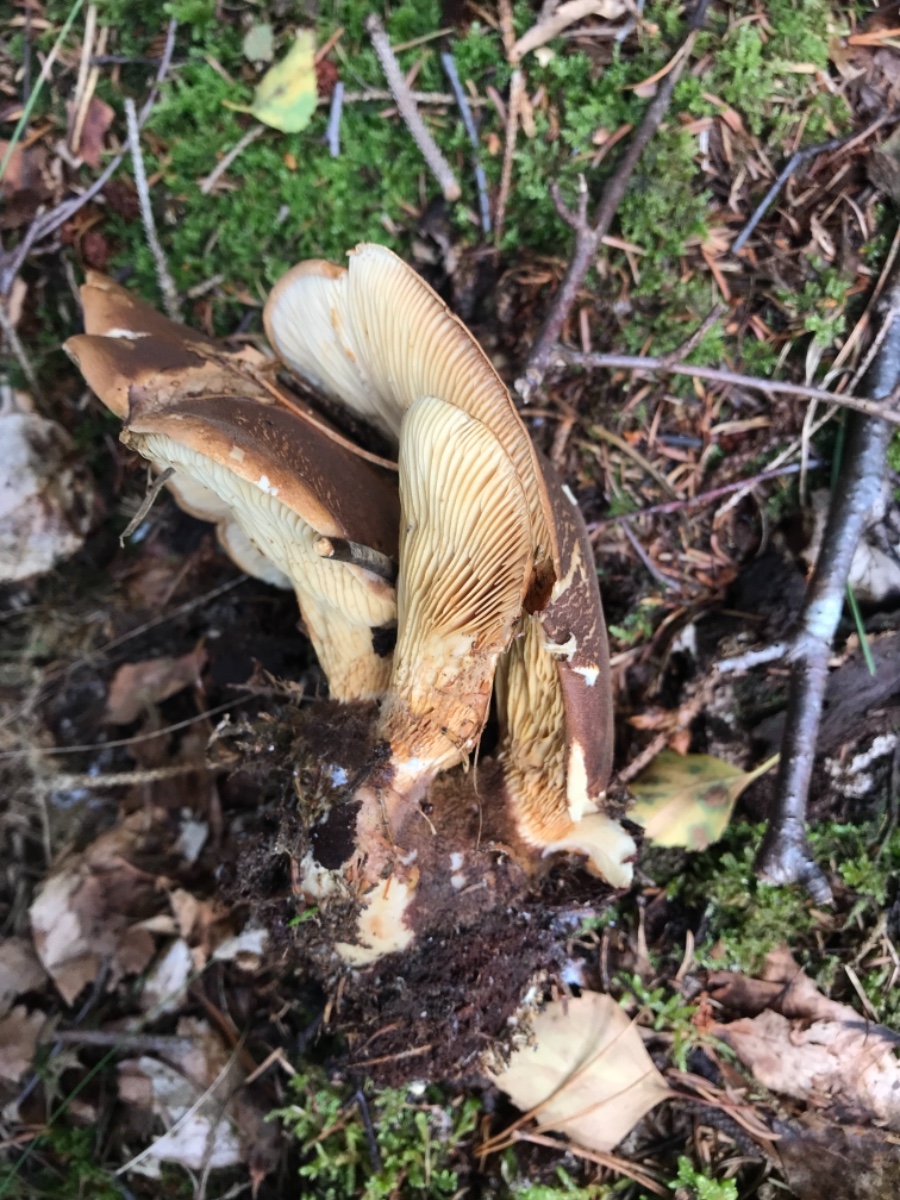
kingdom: Fungi
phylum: Basidiomycota
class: Agaricomycetes
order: Boletales
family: Tapinellaceae
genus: Tapinella
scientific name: Tapinella atrotomentosa
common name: sortfiltet viftesvamp
